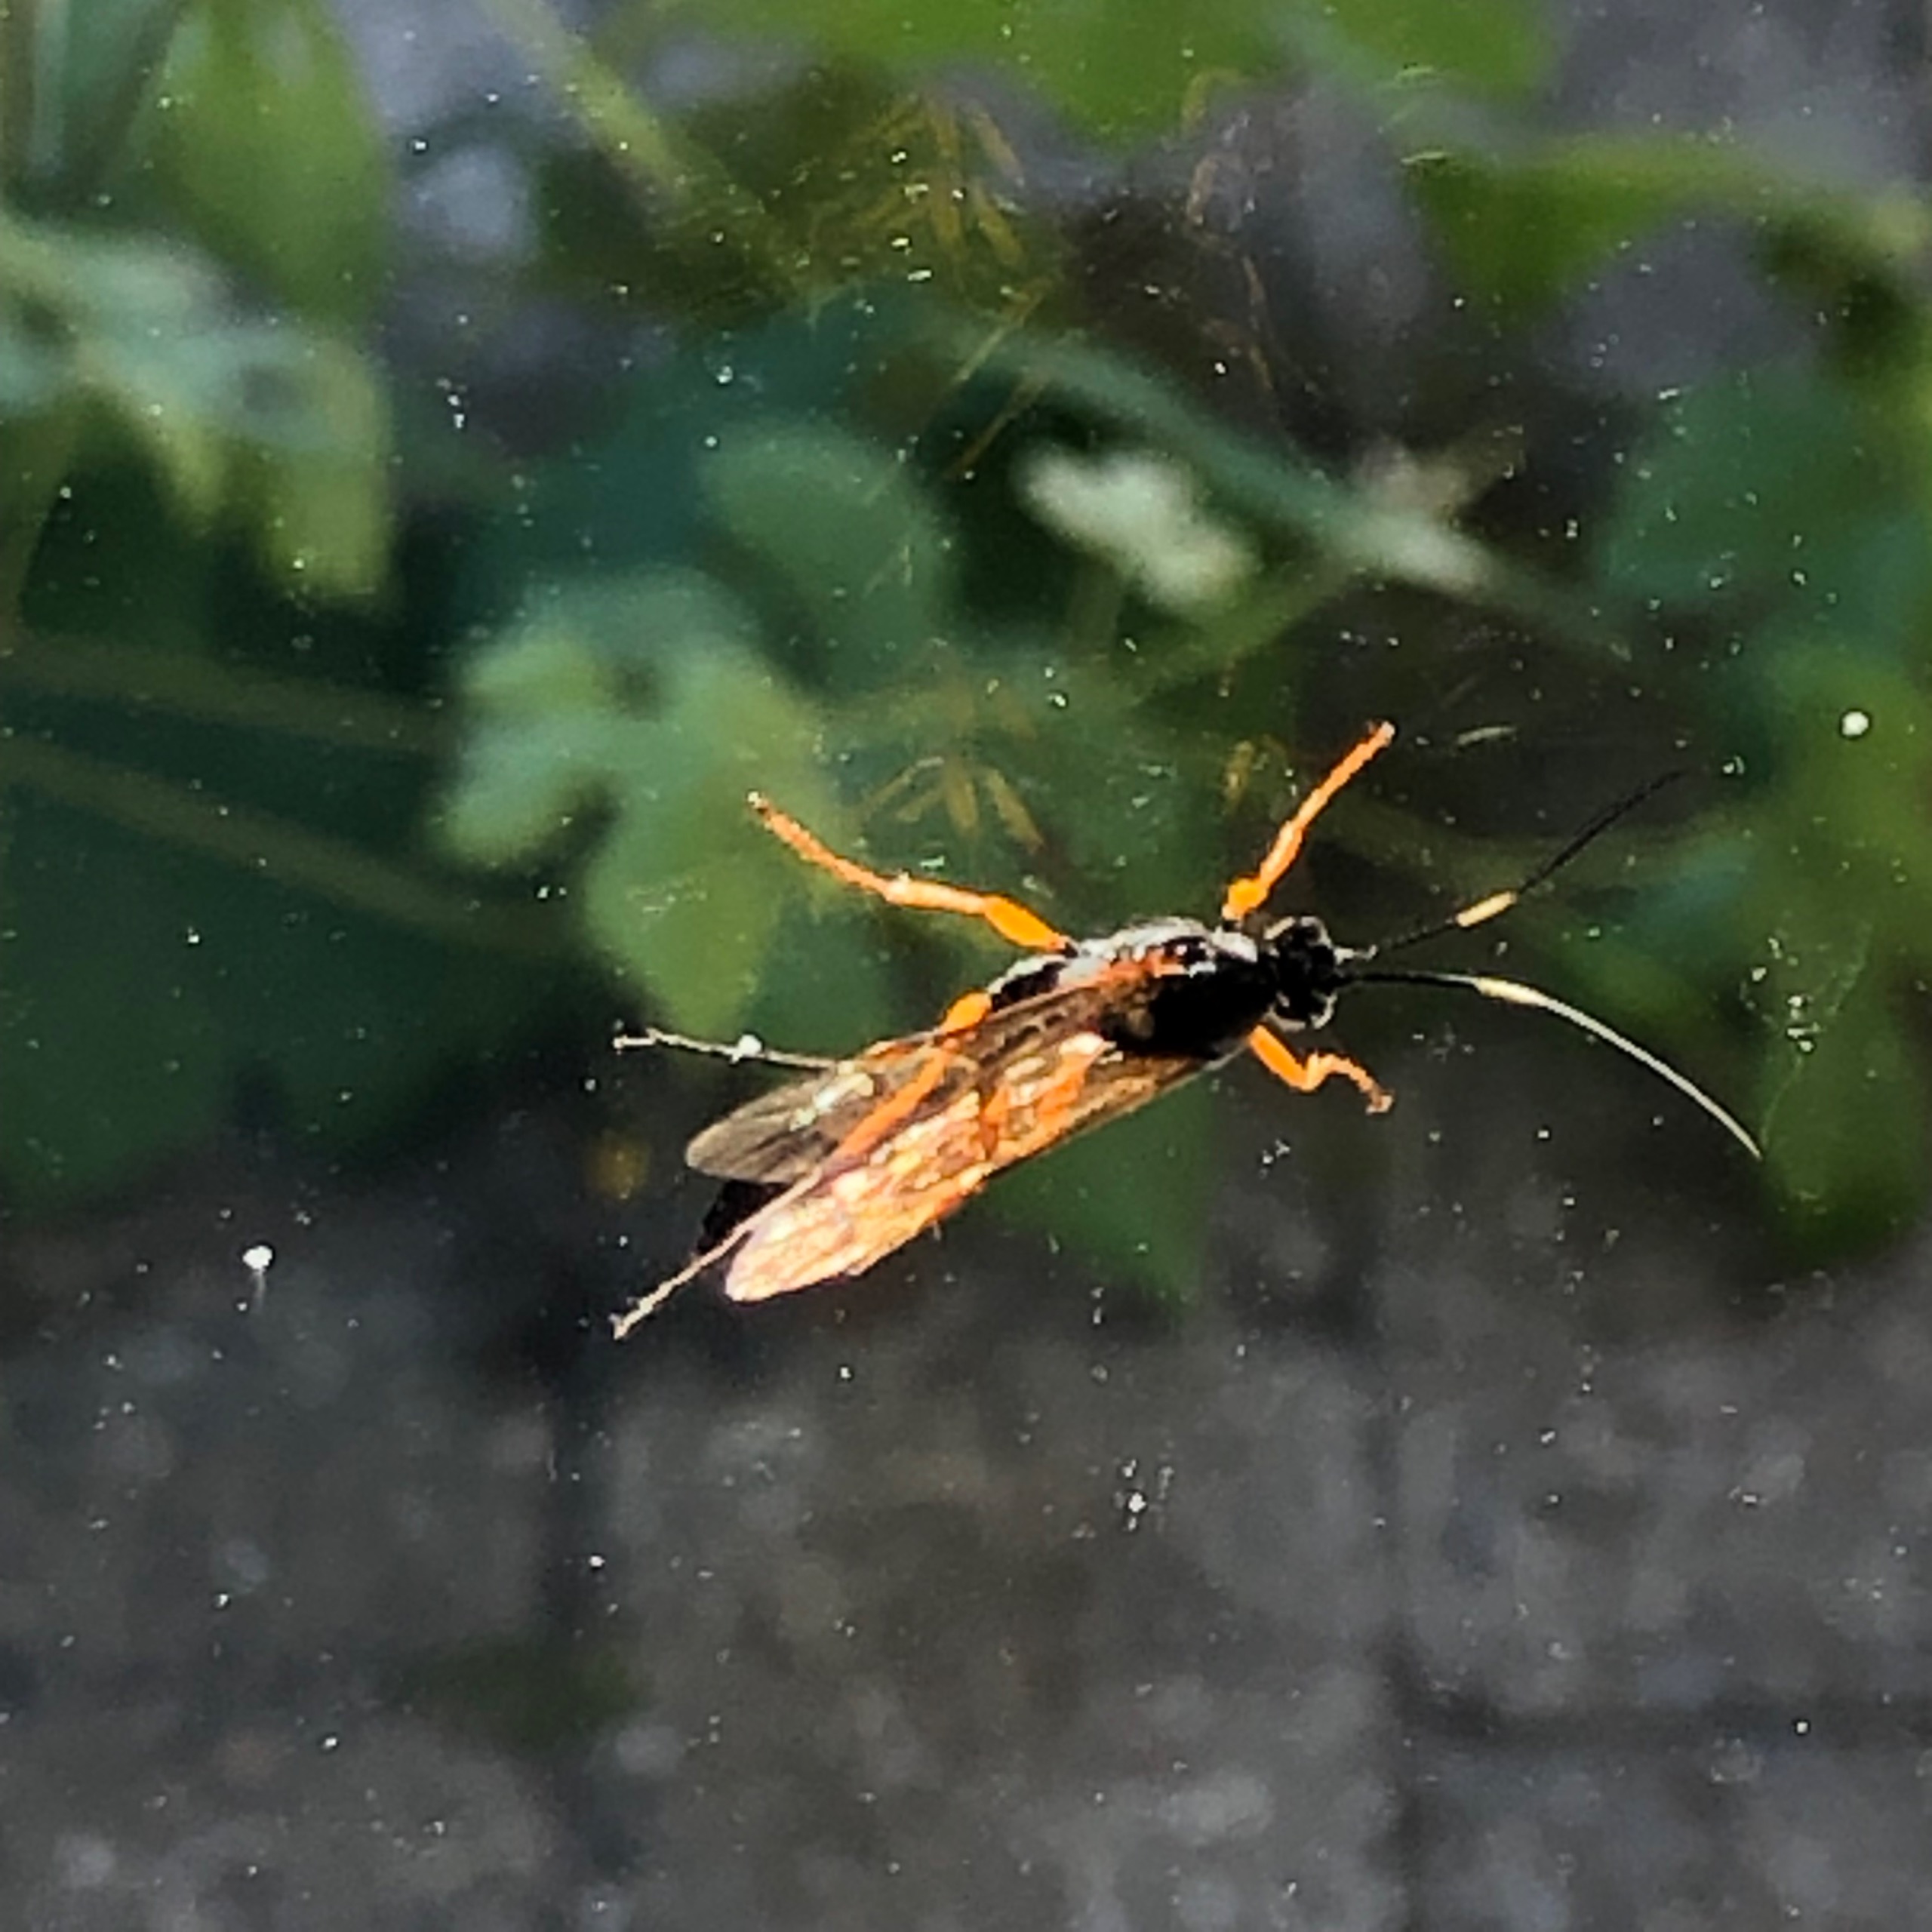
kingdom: Animalia
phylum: Arthropoda
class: Insecta
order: Hymenoptera
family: Ichneumonidae
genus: Diphyus
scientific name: Diphyus quadripunctorius
